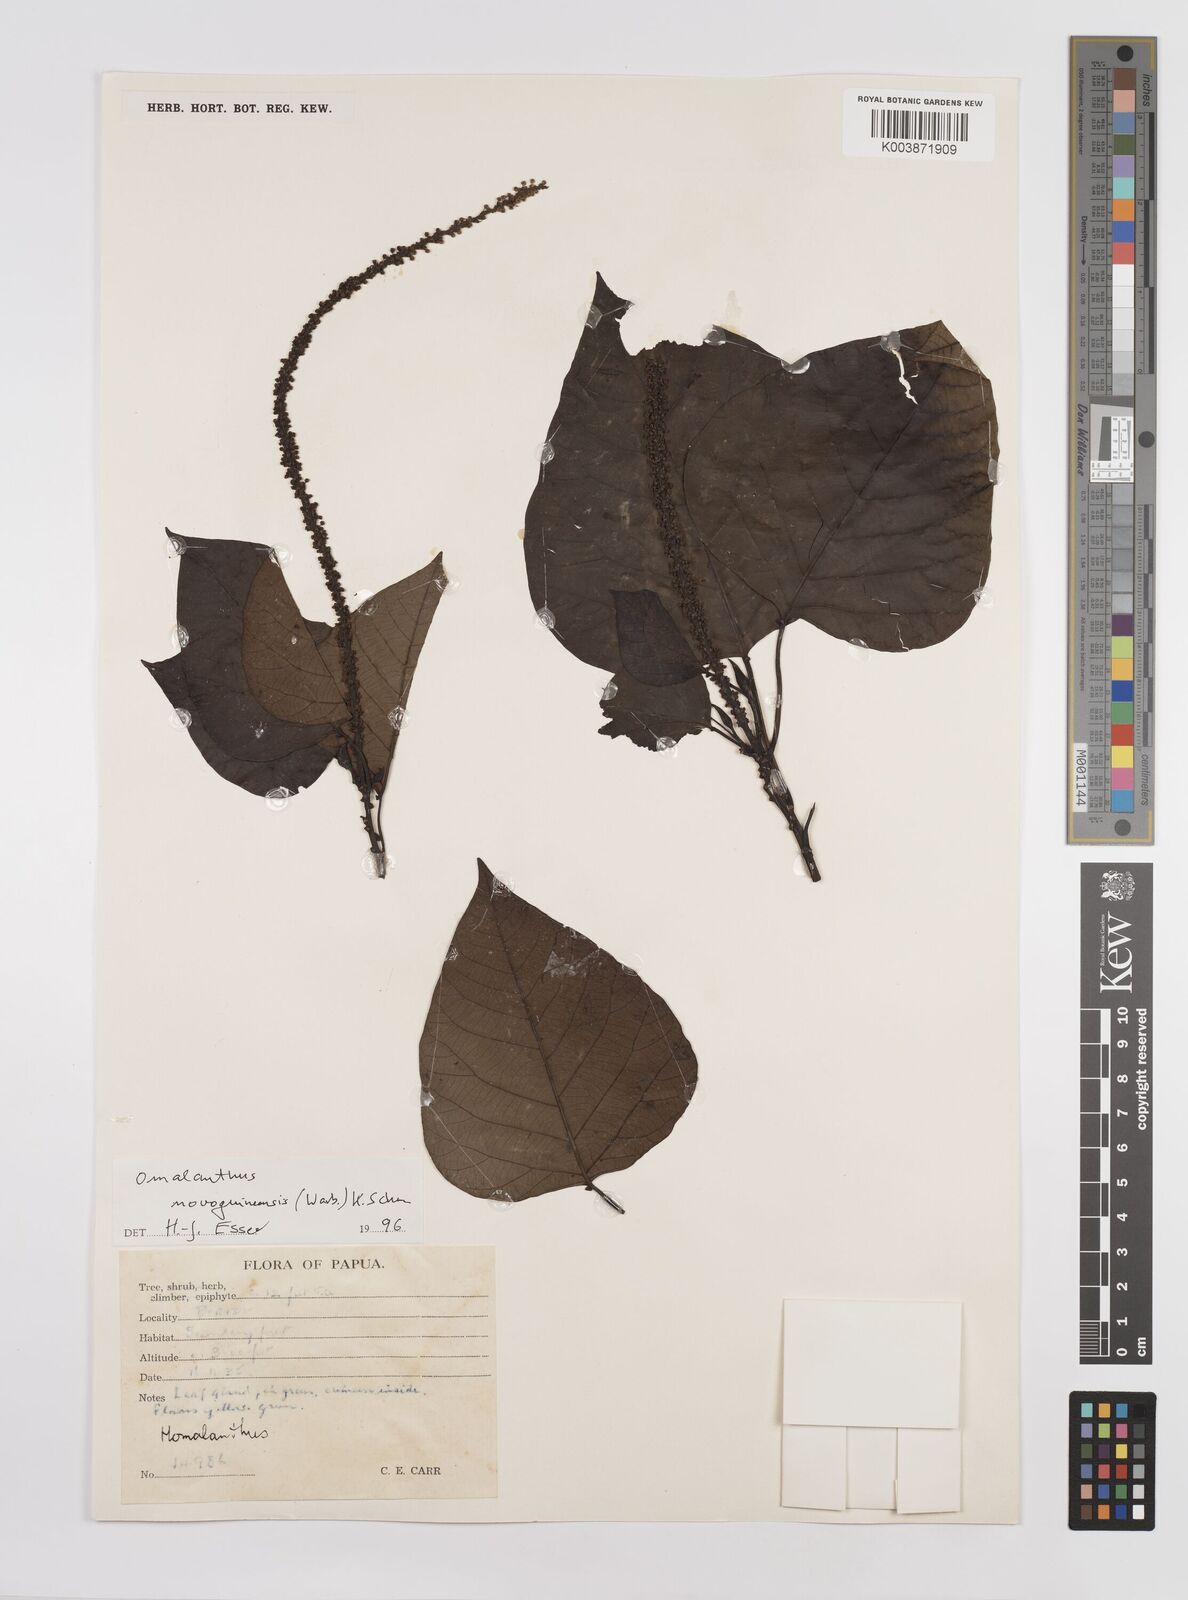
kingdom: Plantae
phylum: Tracheophyta
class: Magnoliopsida
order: Malpighiales
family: Euphorbiaceae
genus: Homalanthus
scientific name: Homalanthus novoguineensis
